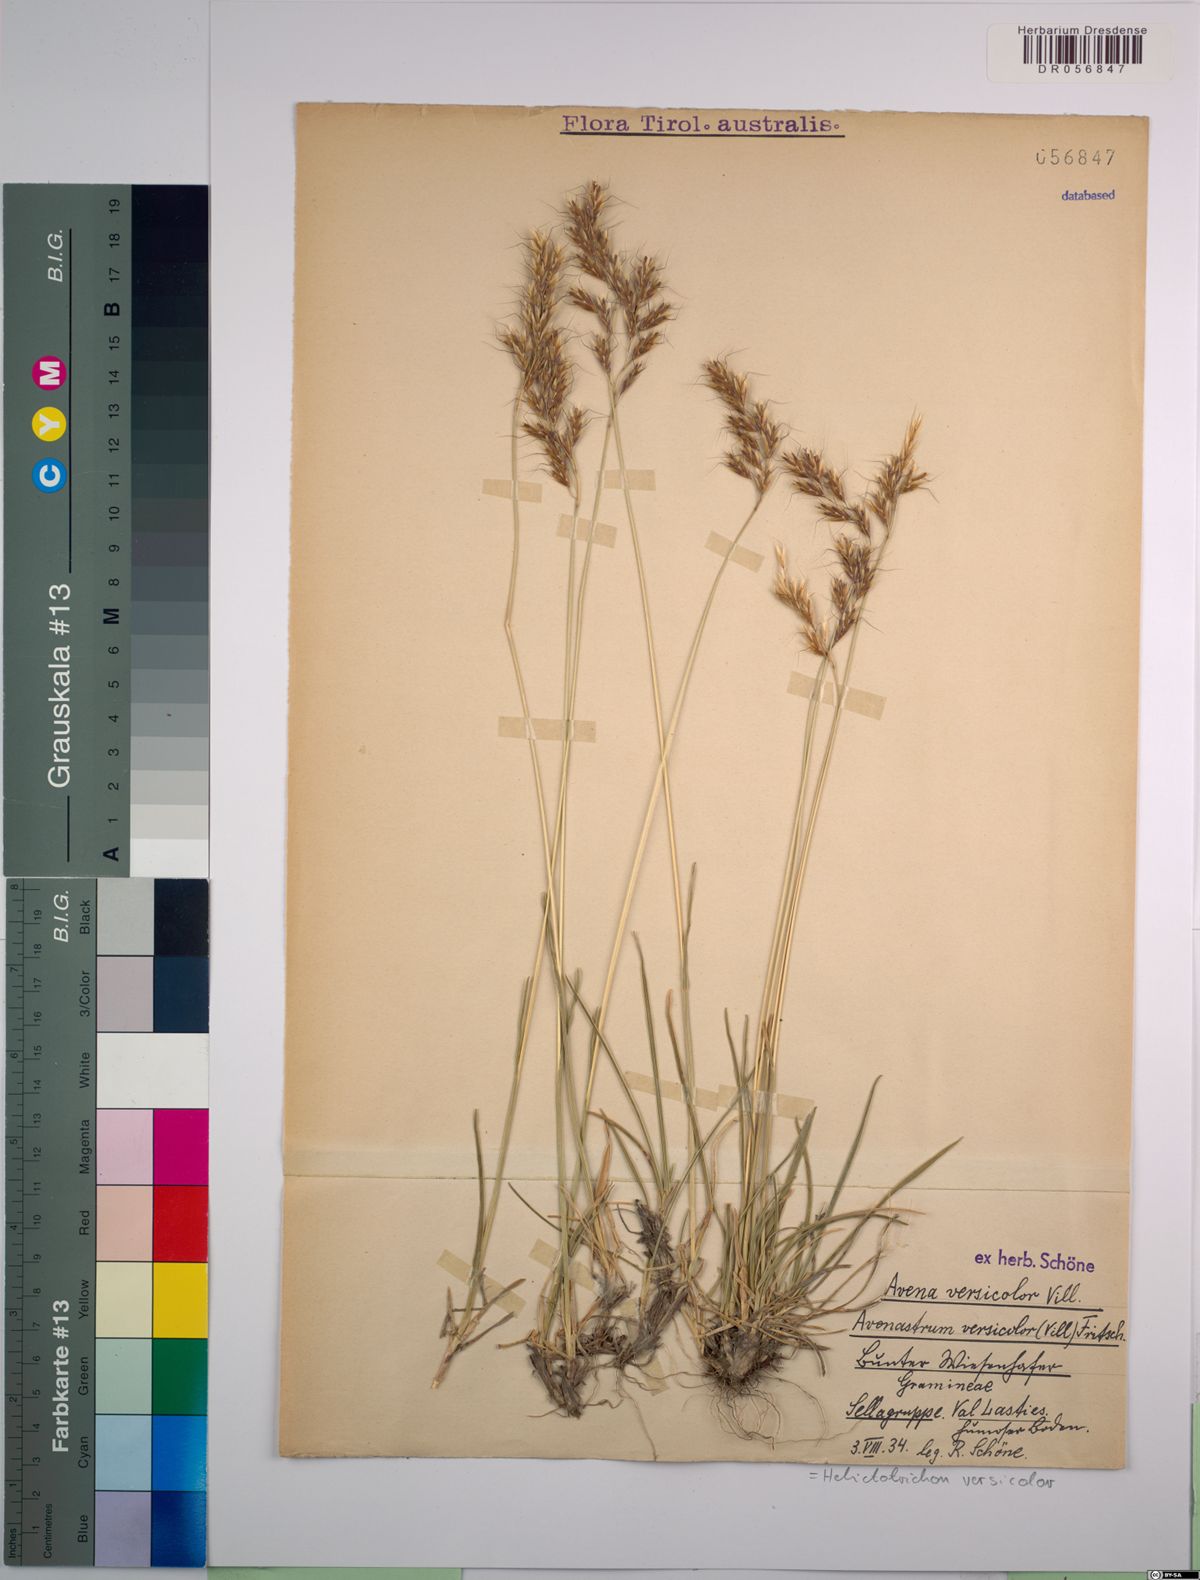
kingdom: Plantae
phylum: Tracheophyta
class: Liliopsida
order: Poales
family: Poaceae
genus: Helictochloa
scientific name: Helictochloa versicolor
